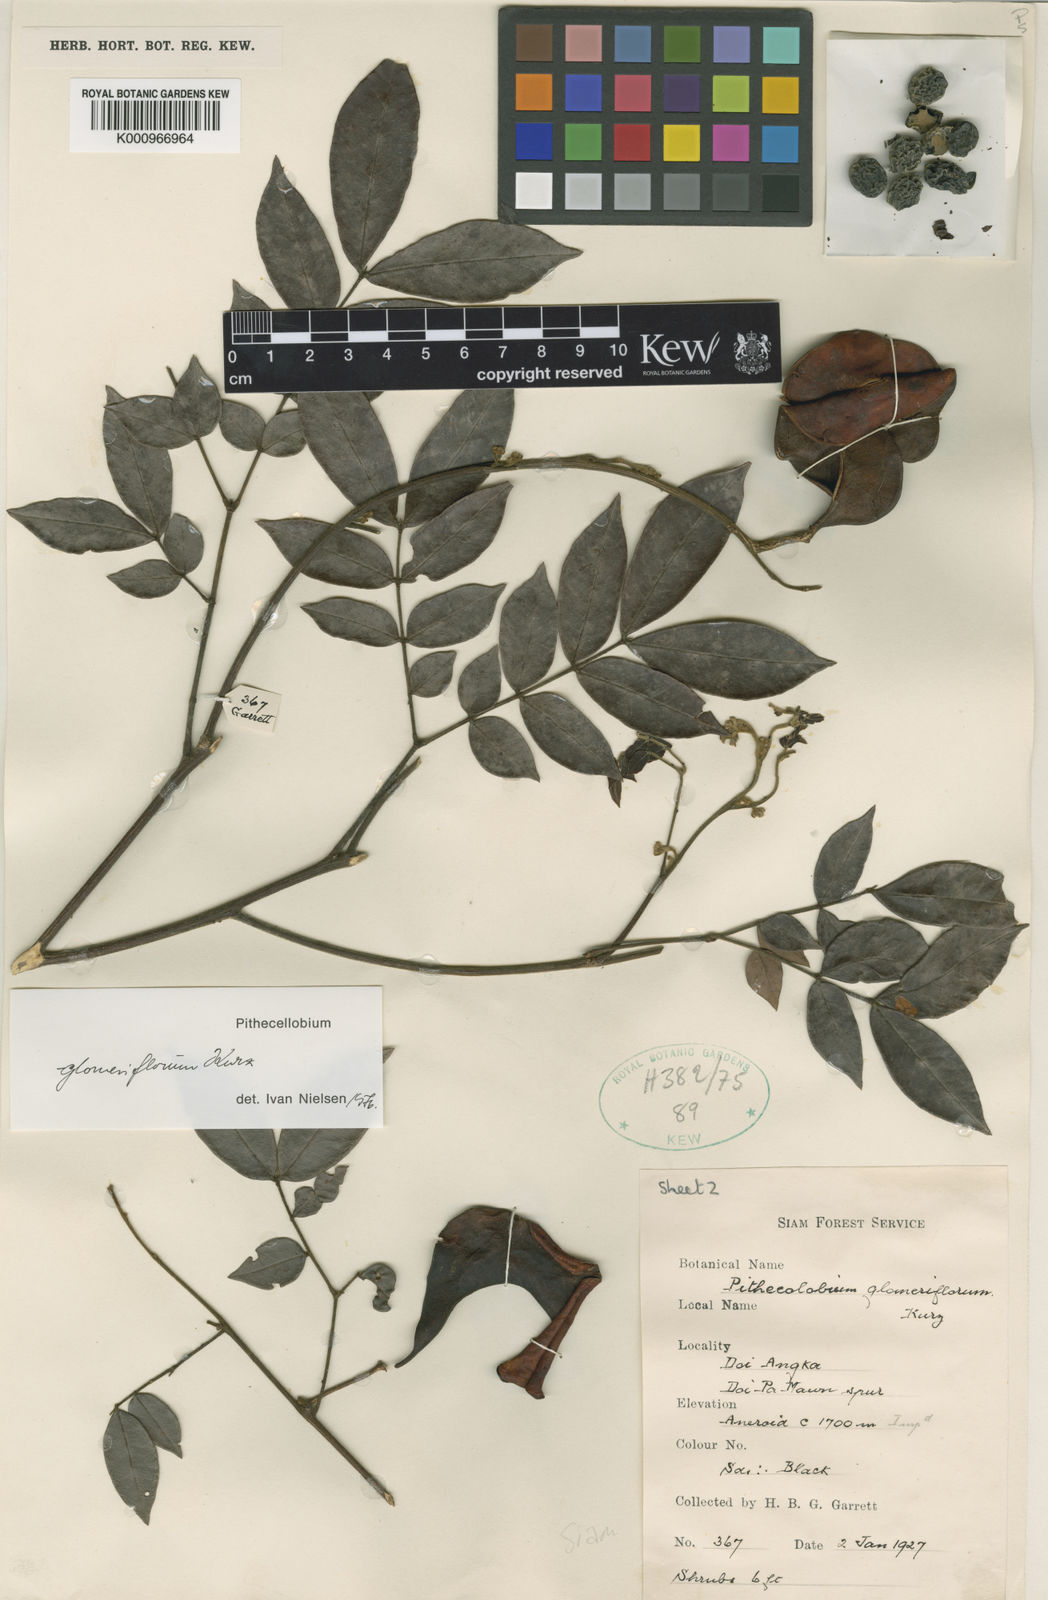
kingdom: Plantae
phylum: Tracheophyta
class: Magnoliopsida
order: Fabales
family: Fabaceae
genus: Archidendron
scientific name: Archidendron glomeriflorum
